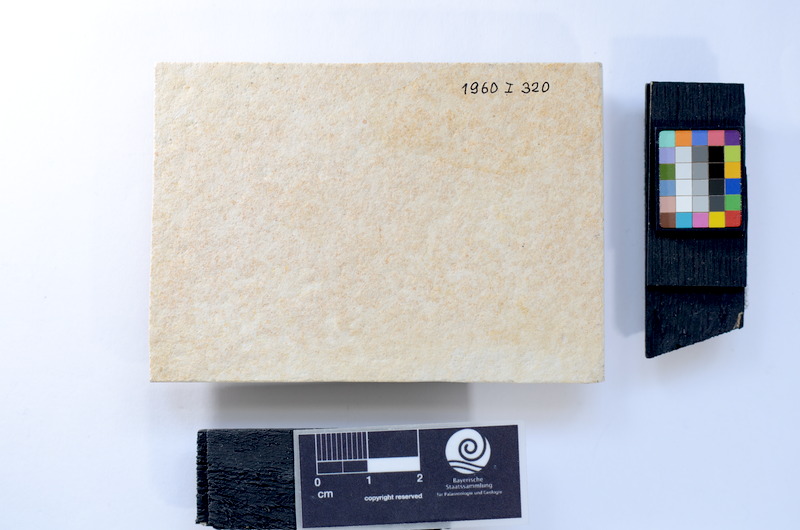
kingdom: Animalia
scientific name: Animalia
